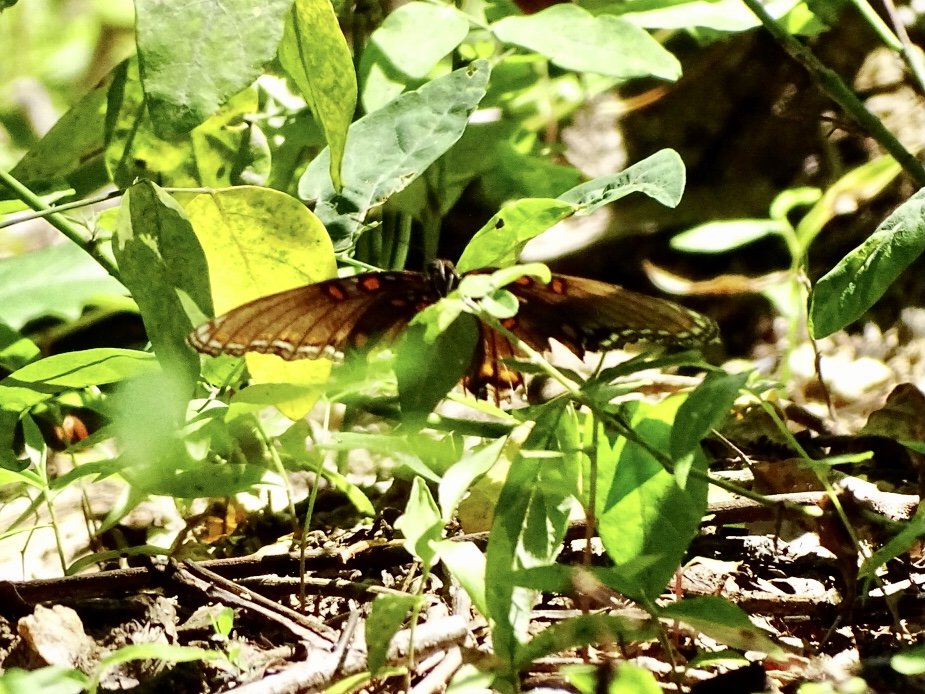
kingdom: Animalia
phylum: Arthropoda
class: Insecta
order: Lepidoptera
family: Nymphalidae
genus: Limenitis
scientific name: Limenitis arthemis
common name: Red-spotted Admiral
